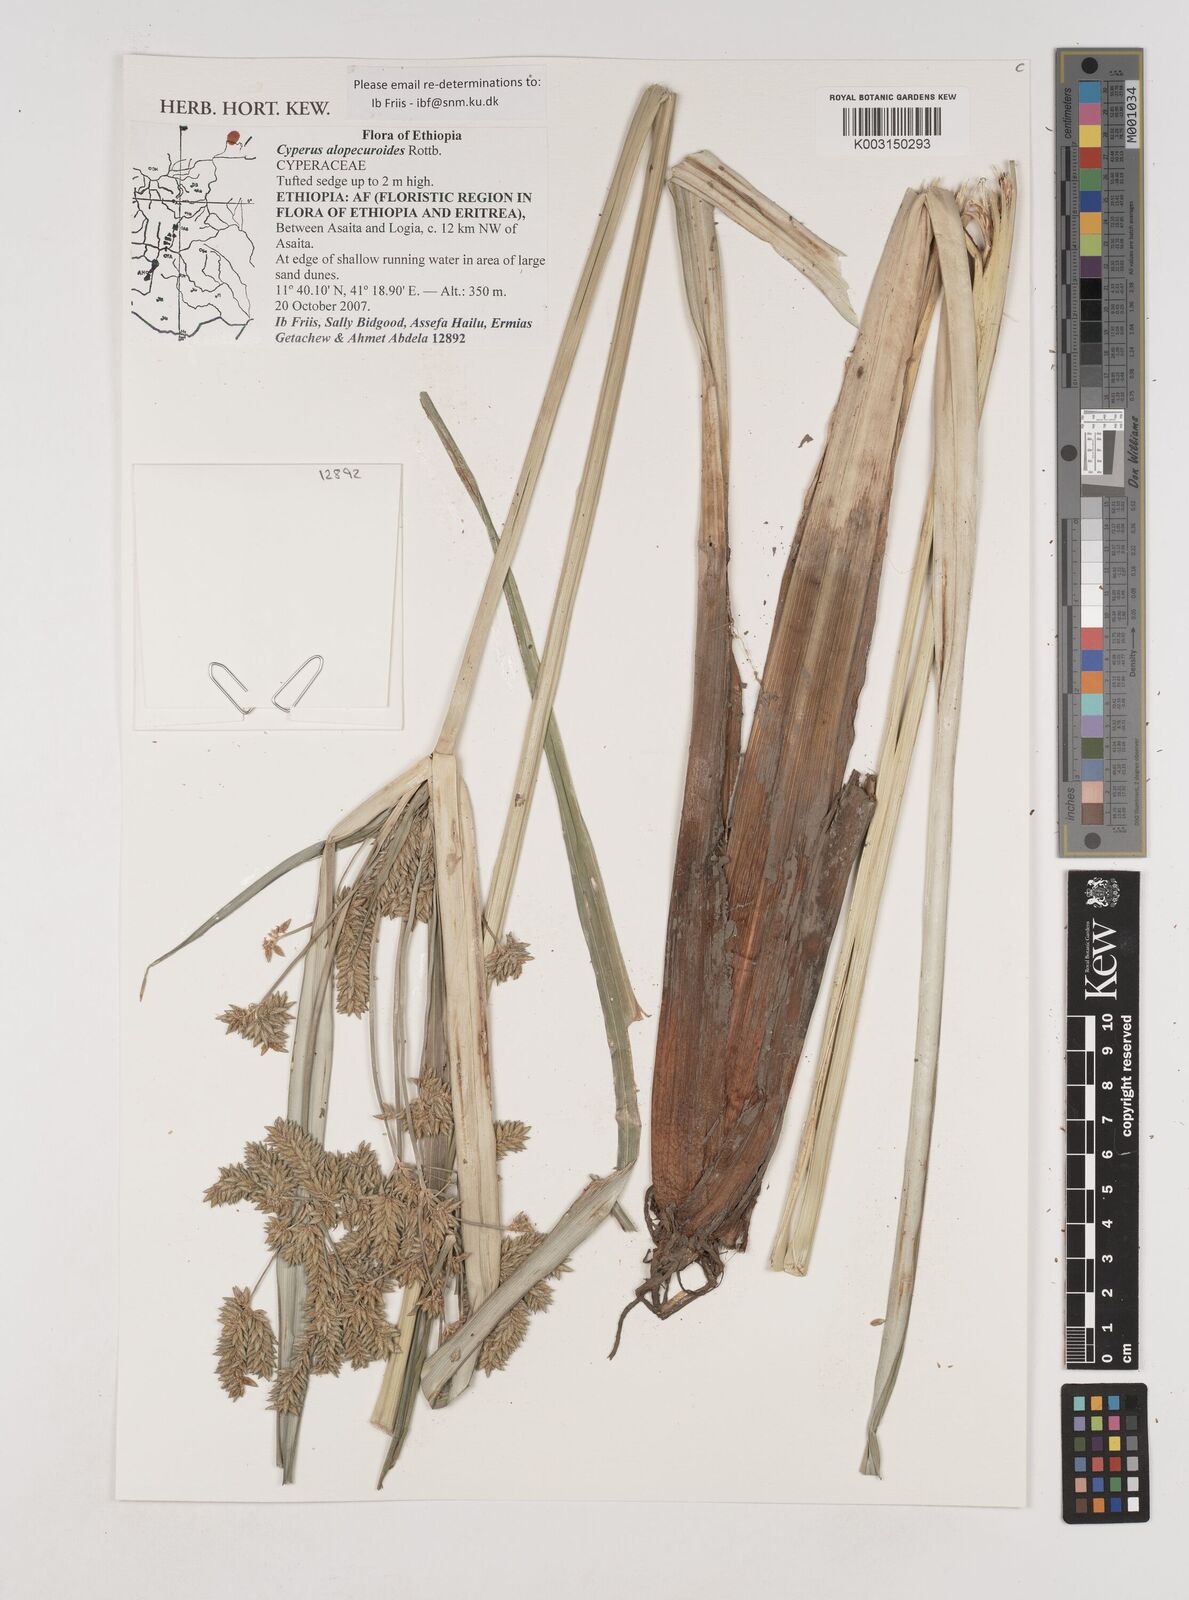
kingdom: Plantae
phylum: Tracheophyta
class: Liliopsida
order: Poales
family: Cyperaceae
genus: Cyperus
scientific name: Cyperus alopecuroides
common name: Foxtail flatsedge
